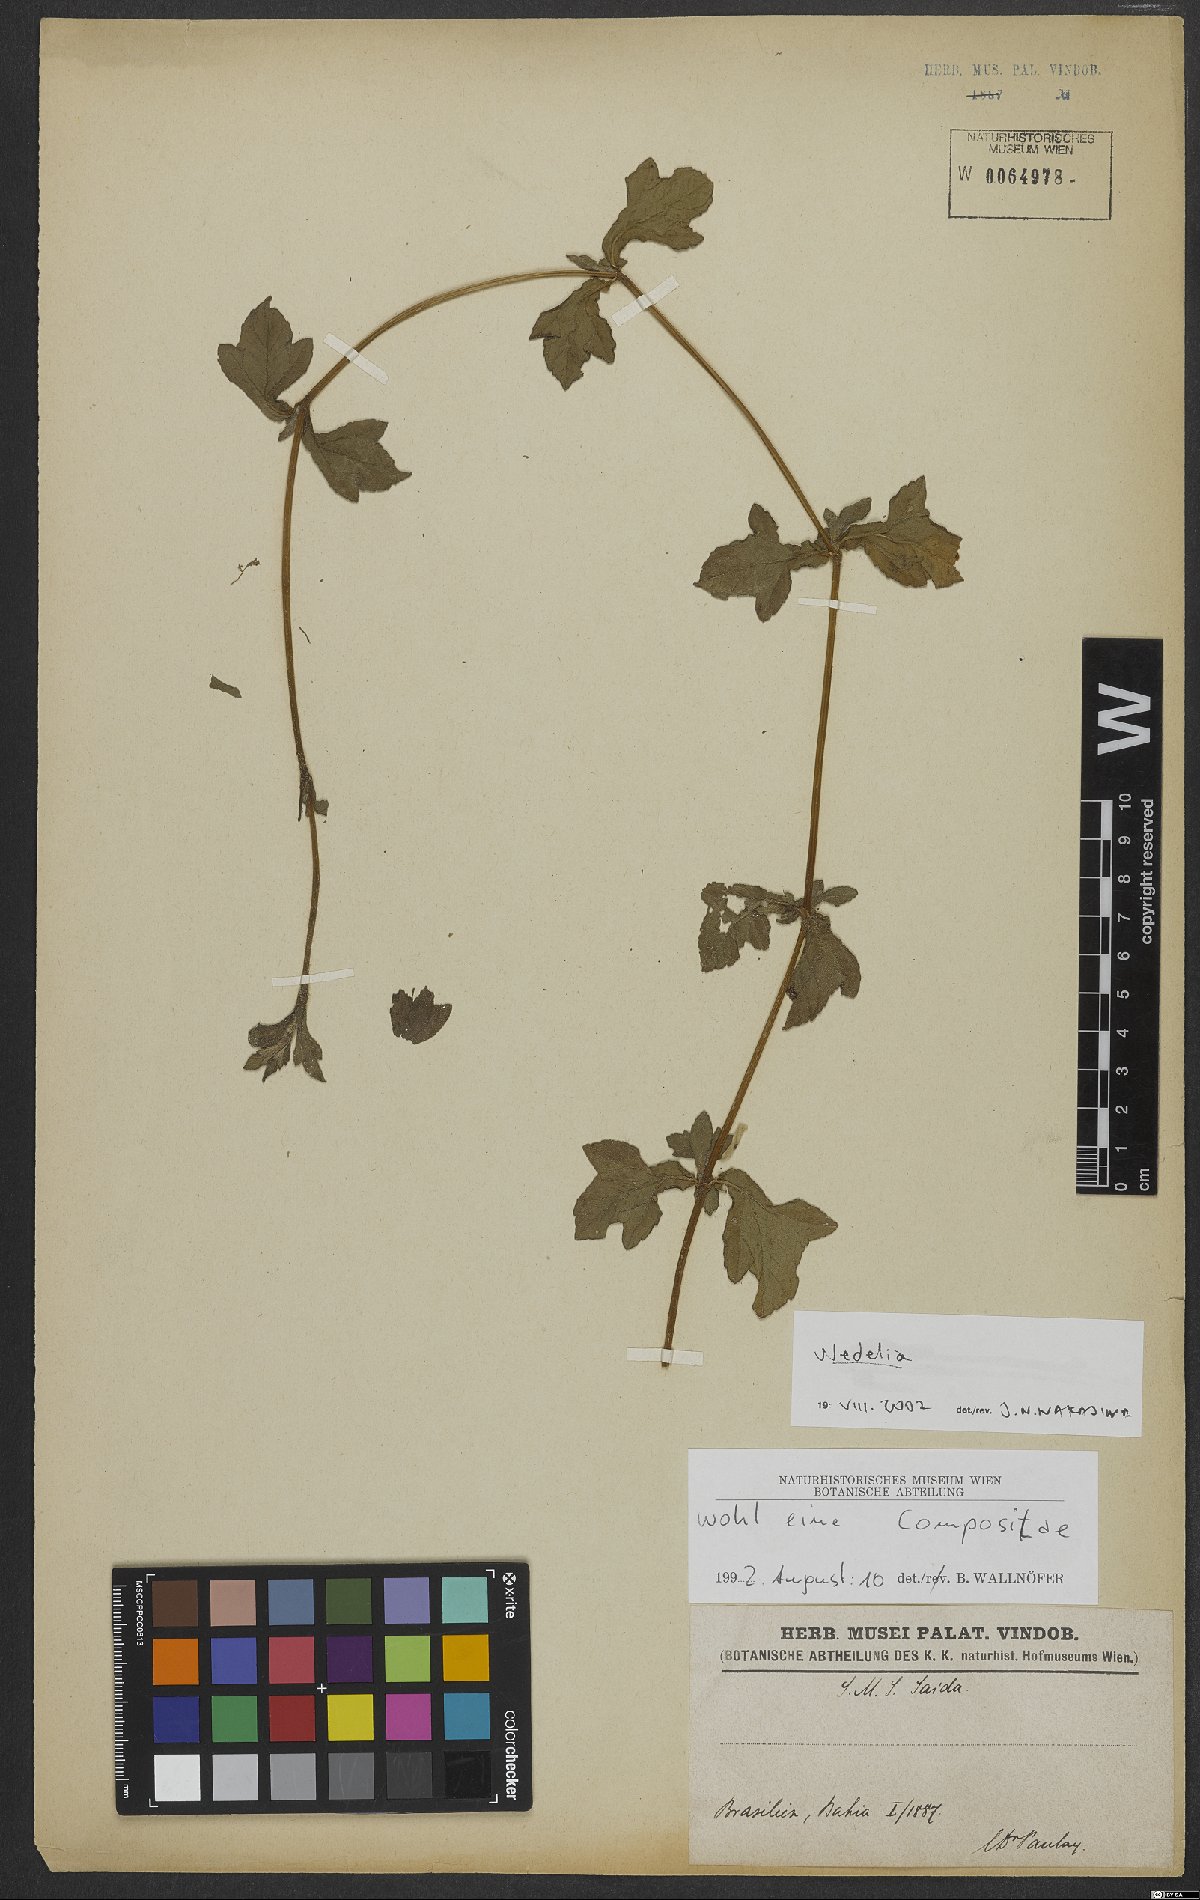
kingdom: Plantae
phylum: Tracheophyta
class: Magnoliopsida
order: Asterales
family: Asteraceae
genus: Wedelia
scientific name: Wedelia
